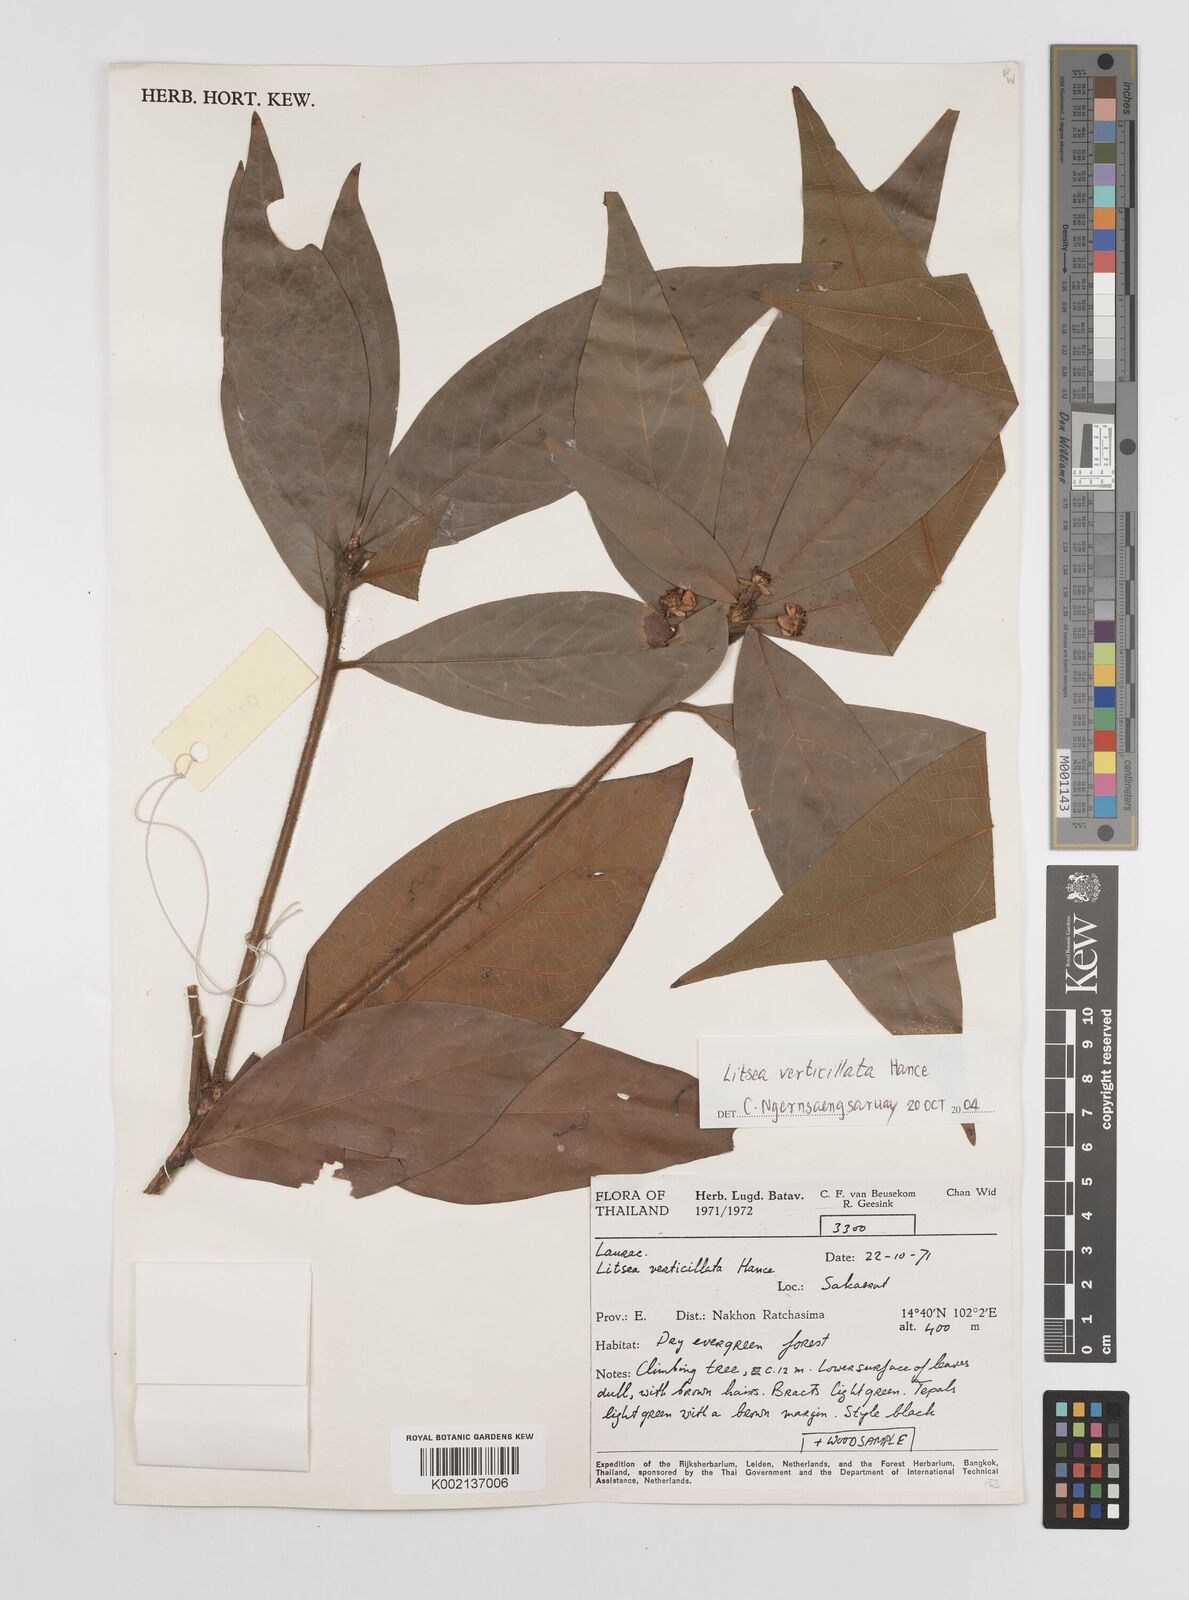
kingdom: Plantae
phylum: Tracheophyta
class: Magnoliopsida
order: Laurales
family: Lauraceae
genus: Litsea
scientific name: Litsea verticillata
